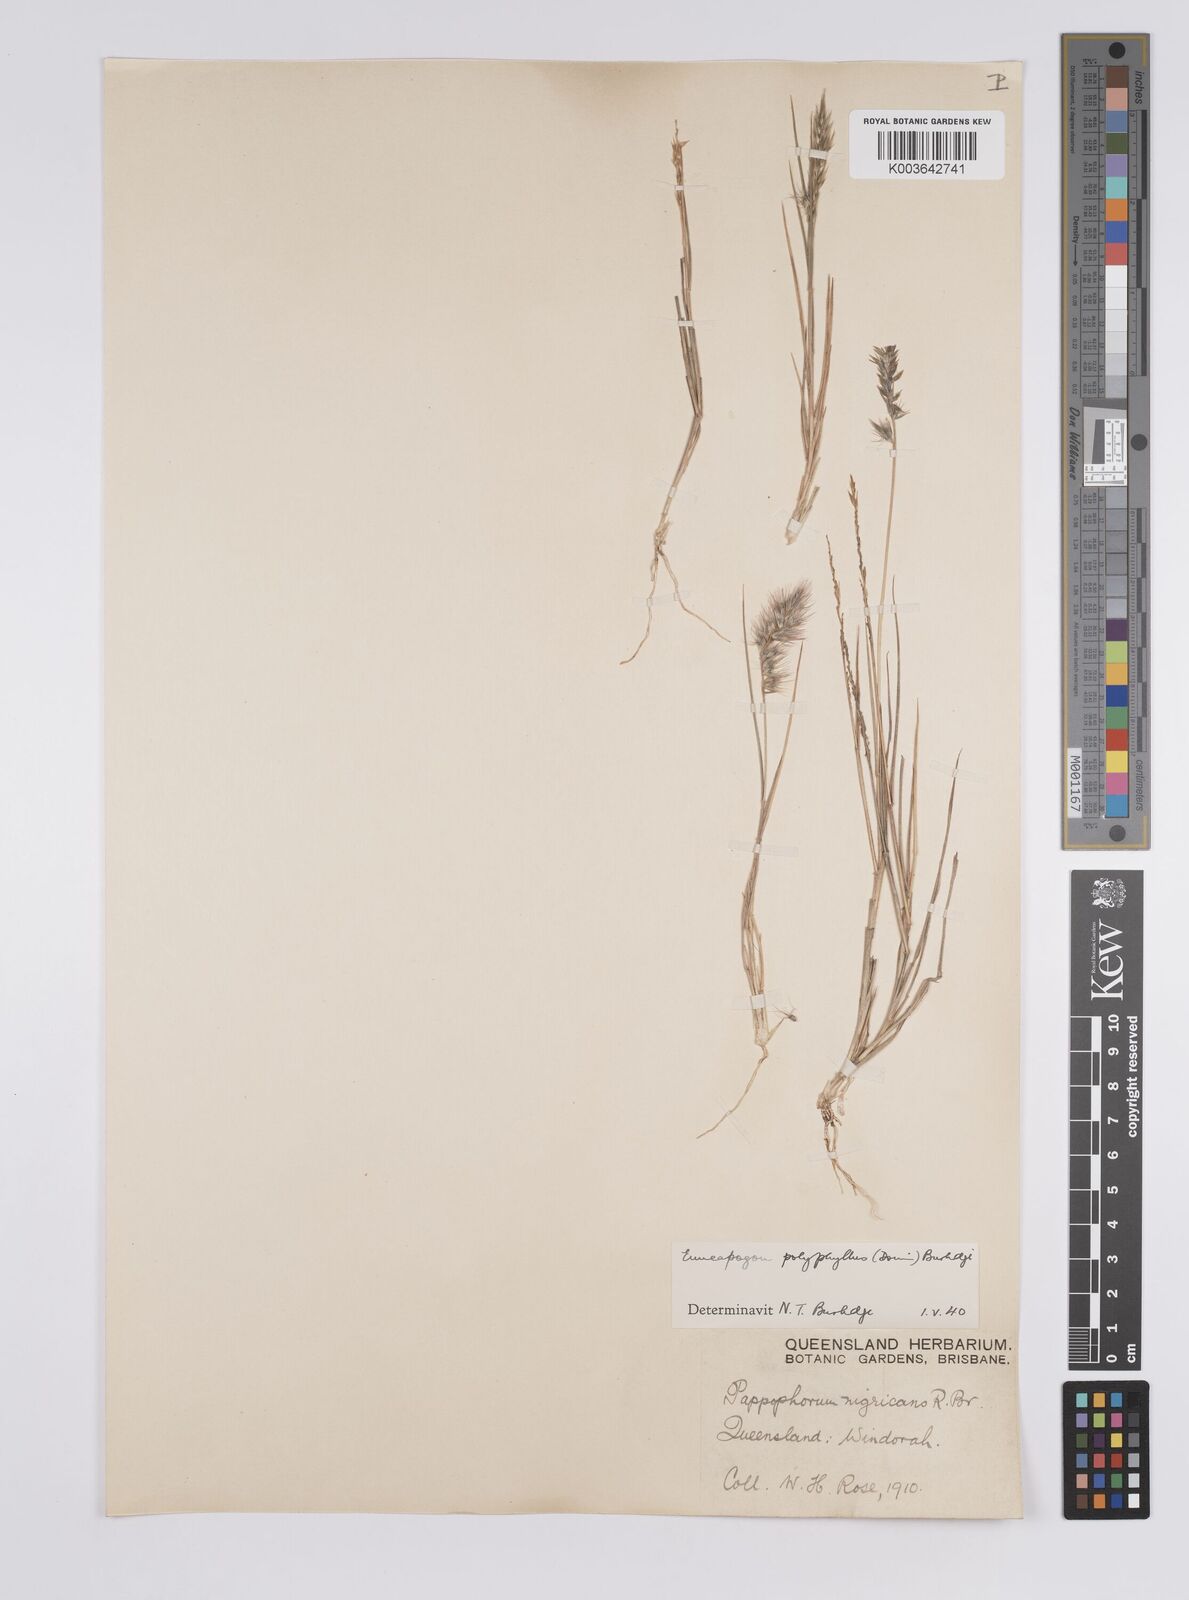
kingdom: Plantae
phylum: Tracheophyta
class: Liliopsida
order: Poales
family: Poaceae
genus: Enneapogon
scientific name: Enneapogon polyphyllus
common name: Leafy nineawn
